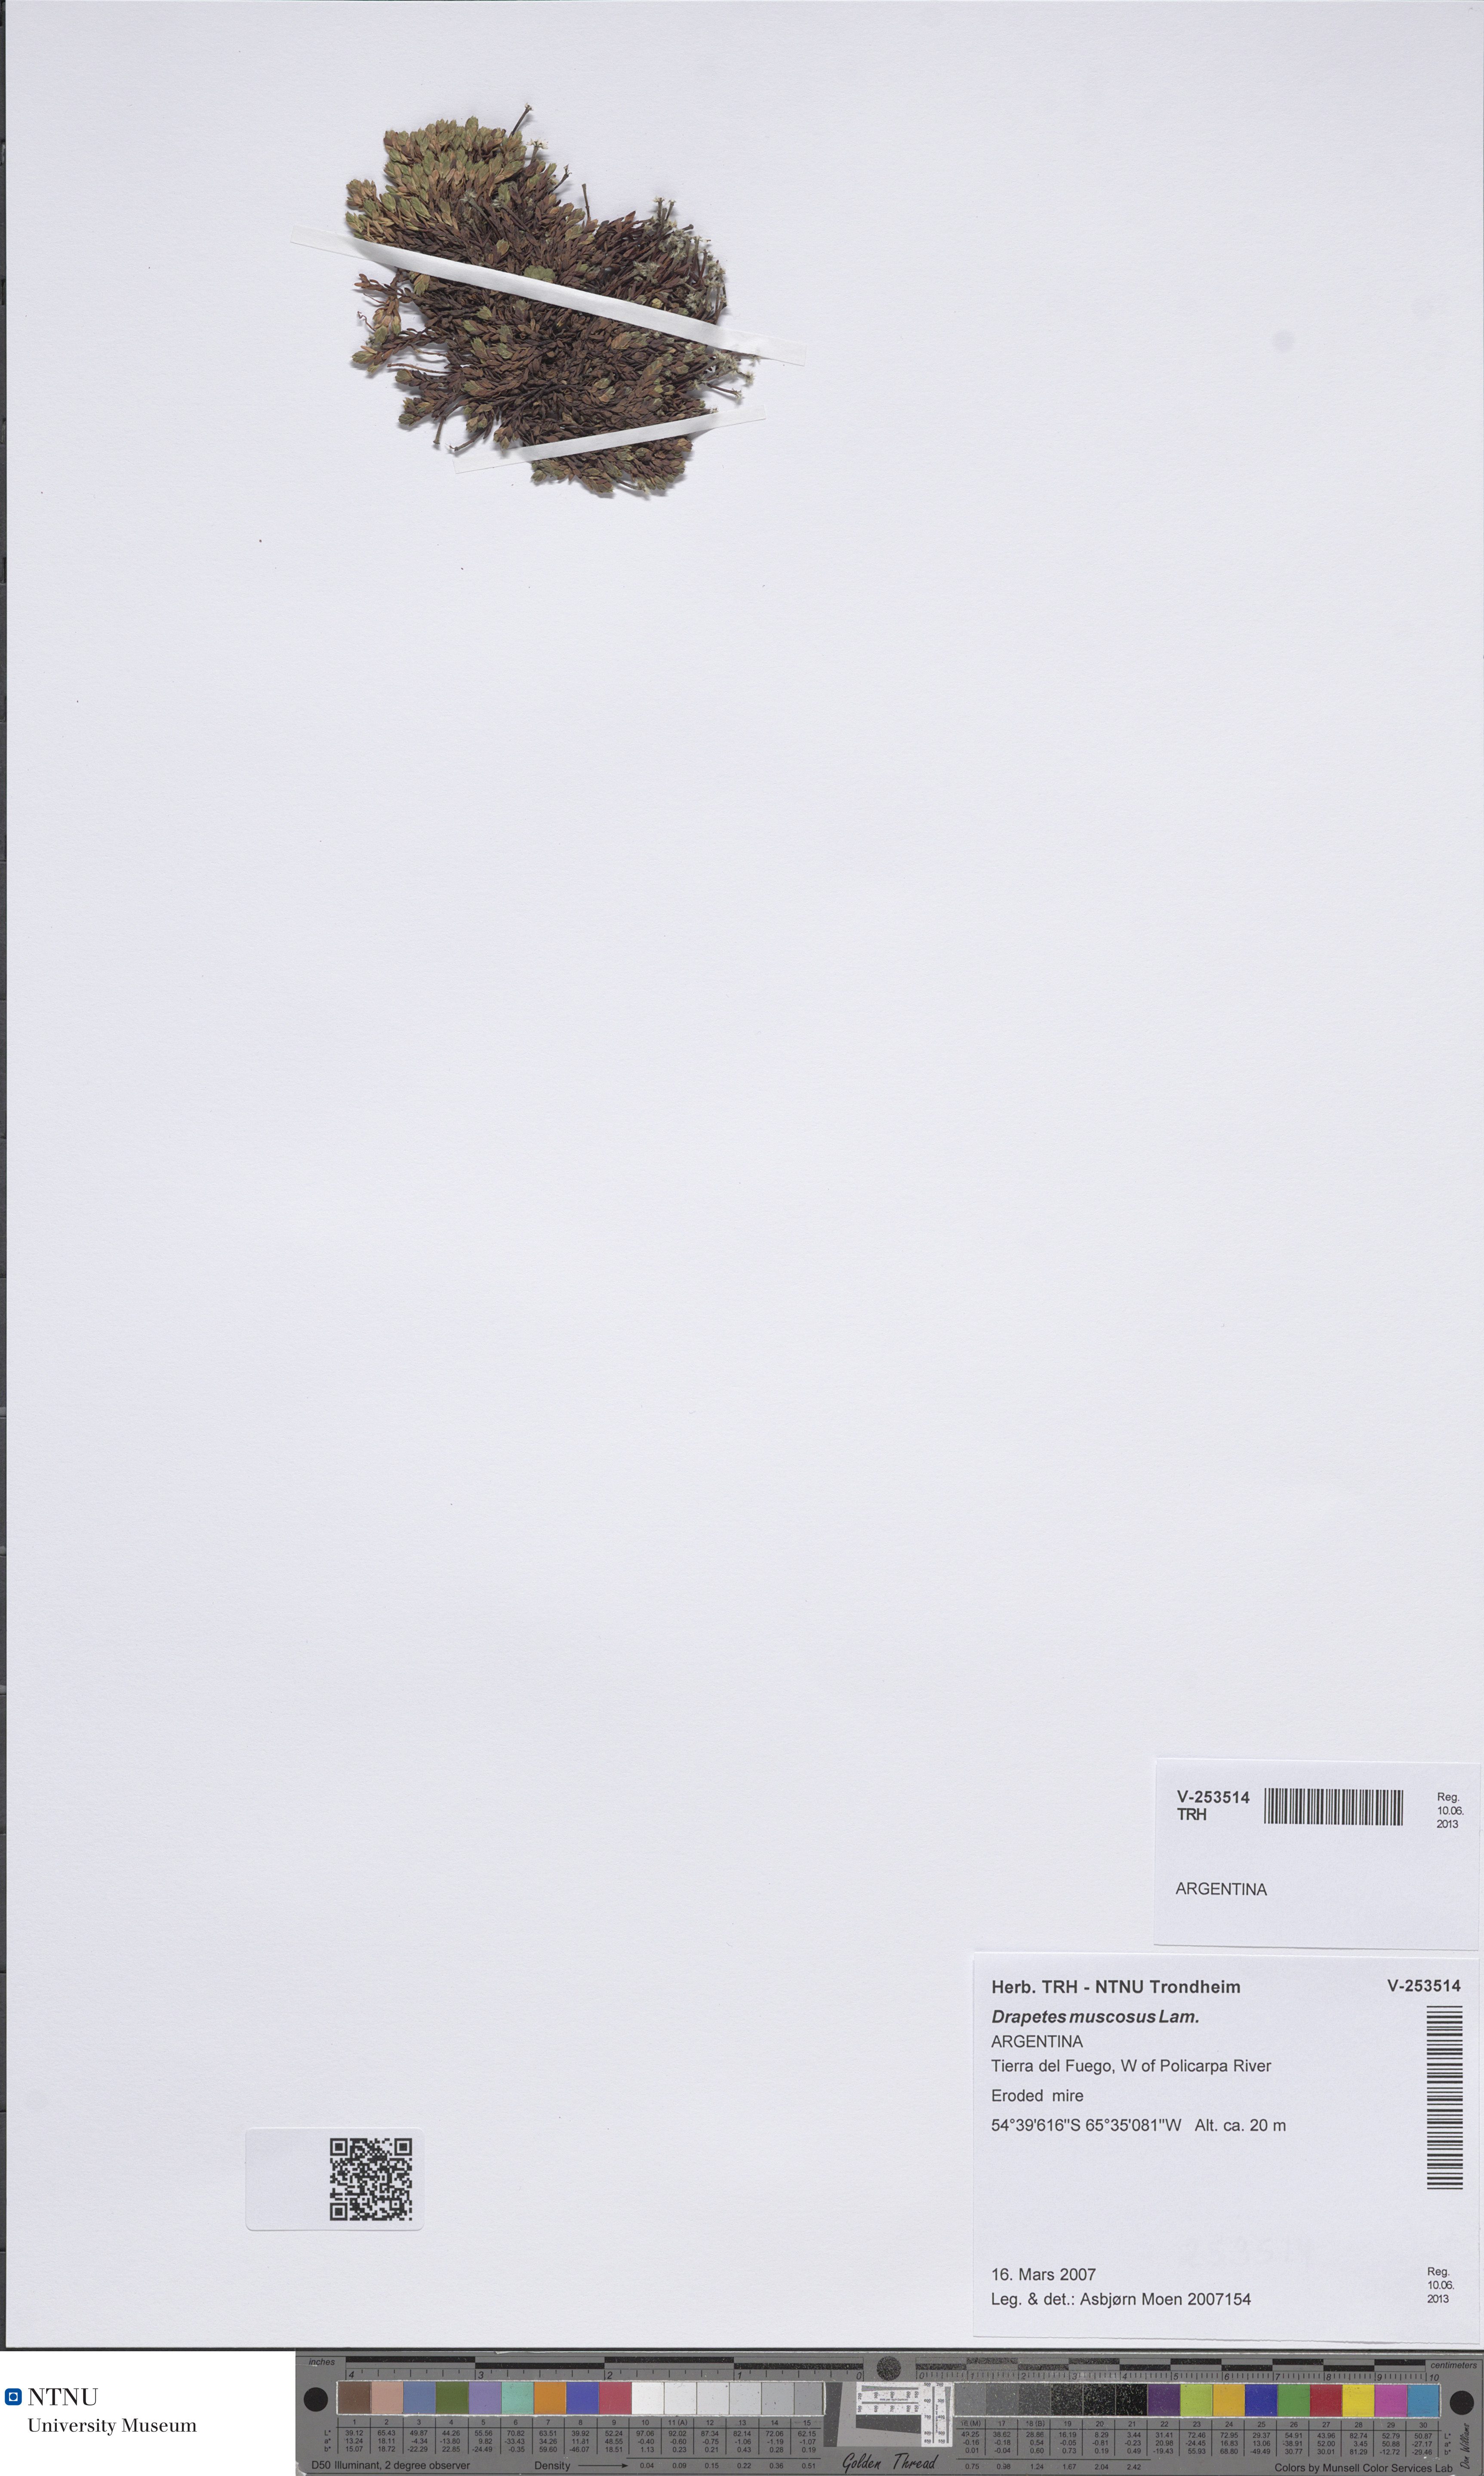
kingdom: Plantae
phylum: Tracheophyta
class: Magnoliopsida
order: Malvales
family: Thymelaeaceae
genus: Drapetes
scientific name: Drapetes muscosus
